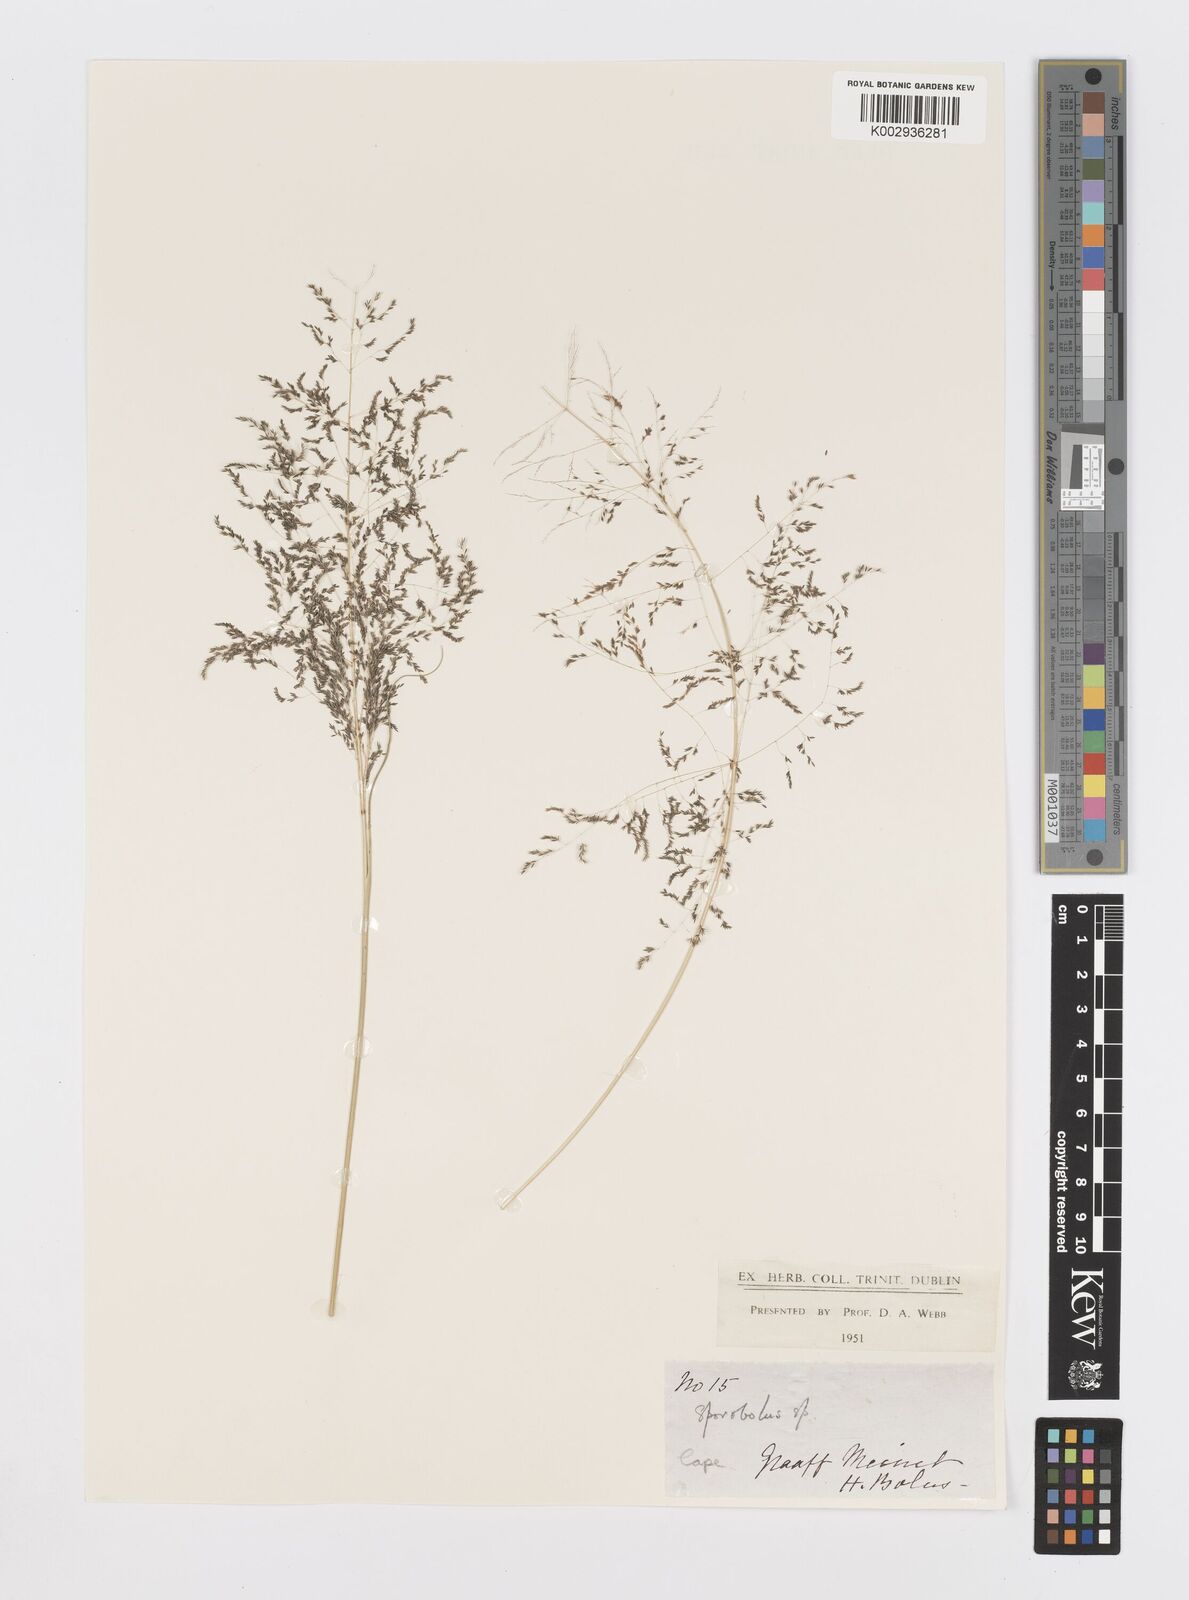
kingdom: Plantae
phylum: Tracheophyta
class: Liliopsida
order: Poales
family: Poaceae
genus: Sporobolus
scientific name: Sporobolus ioclados
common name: Pan dropseed
